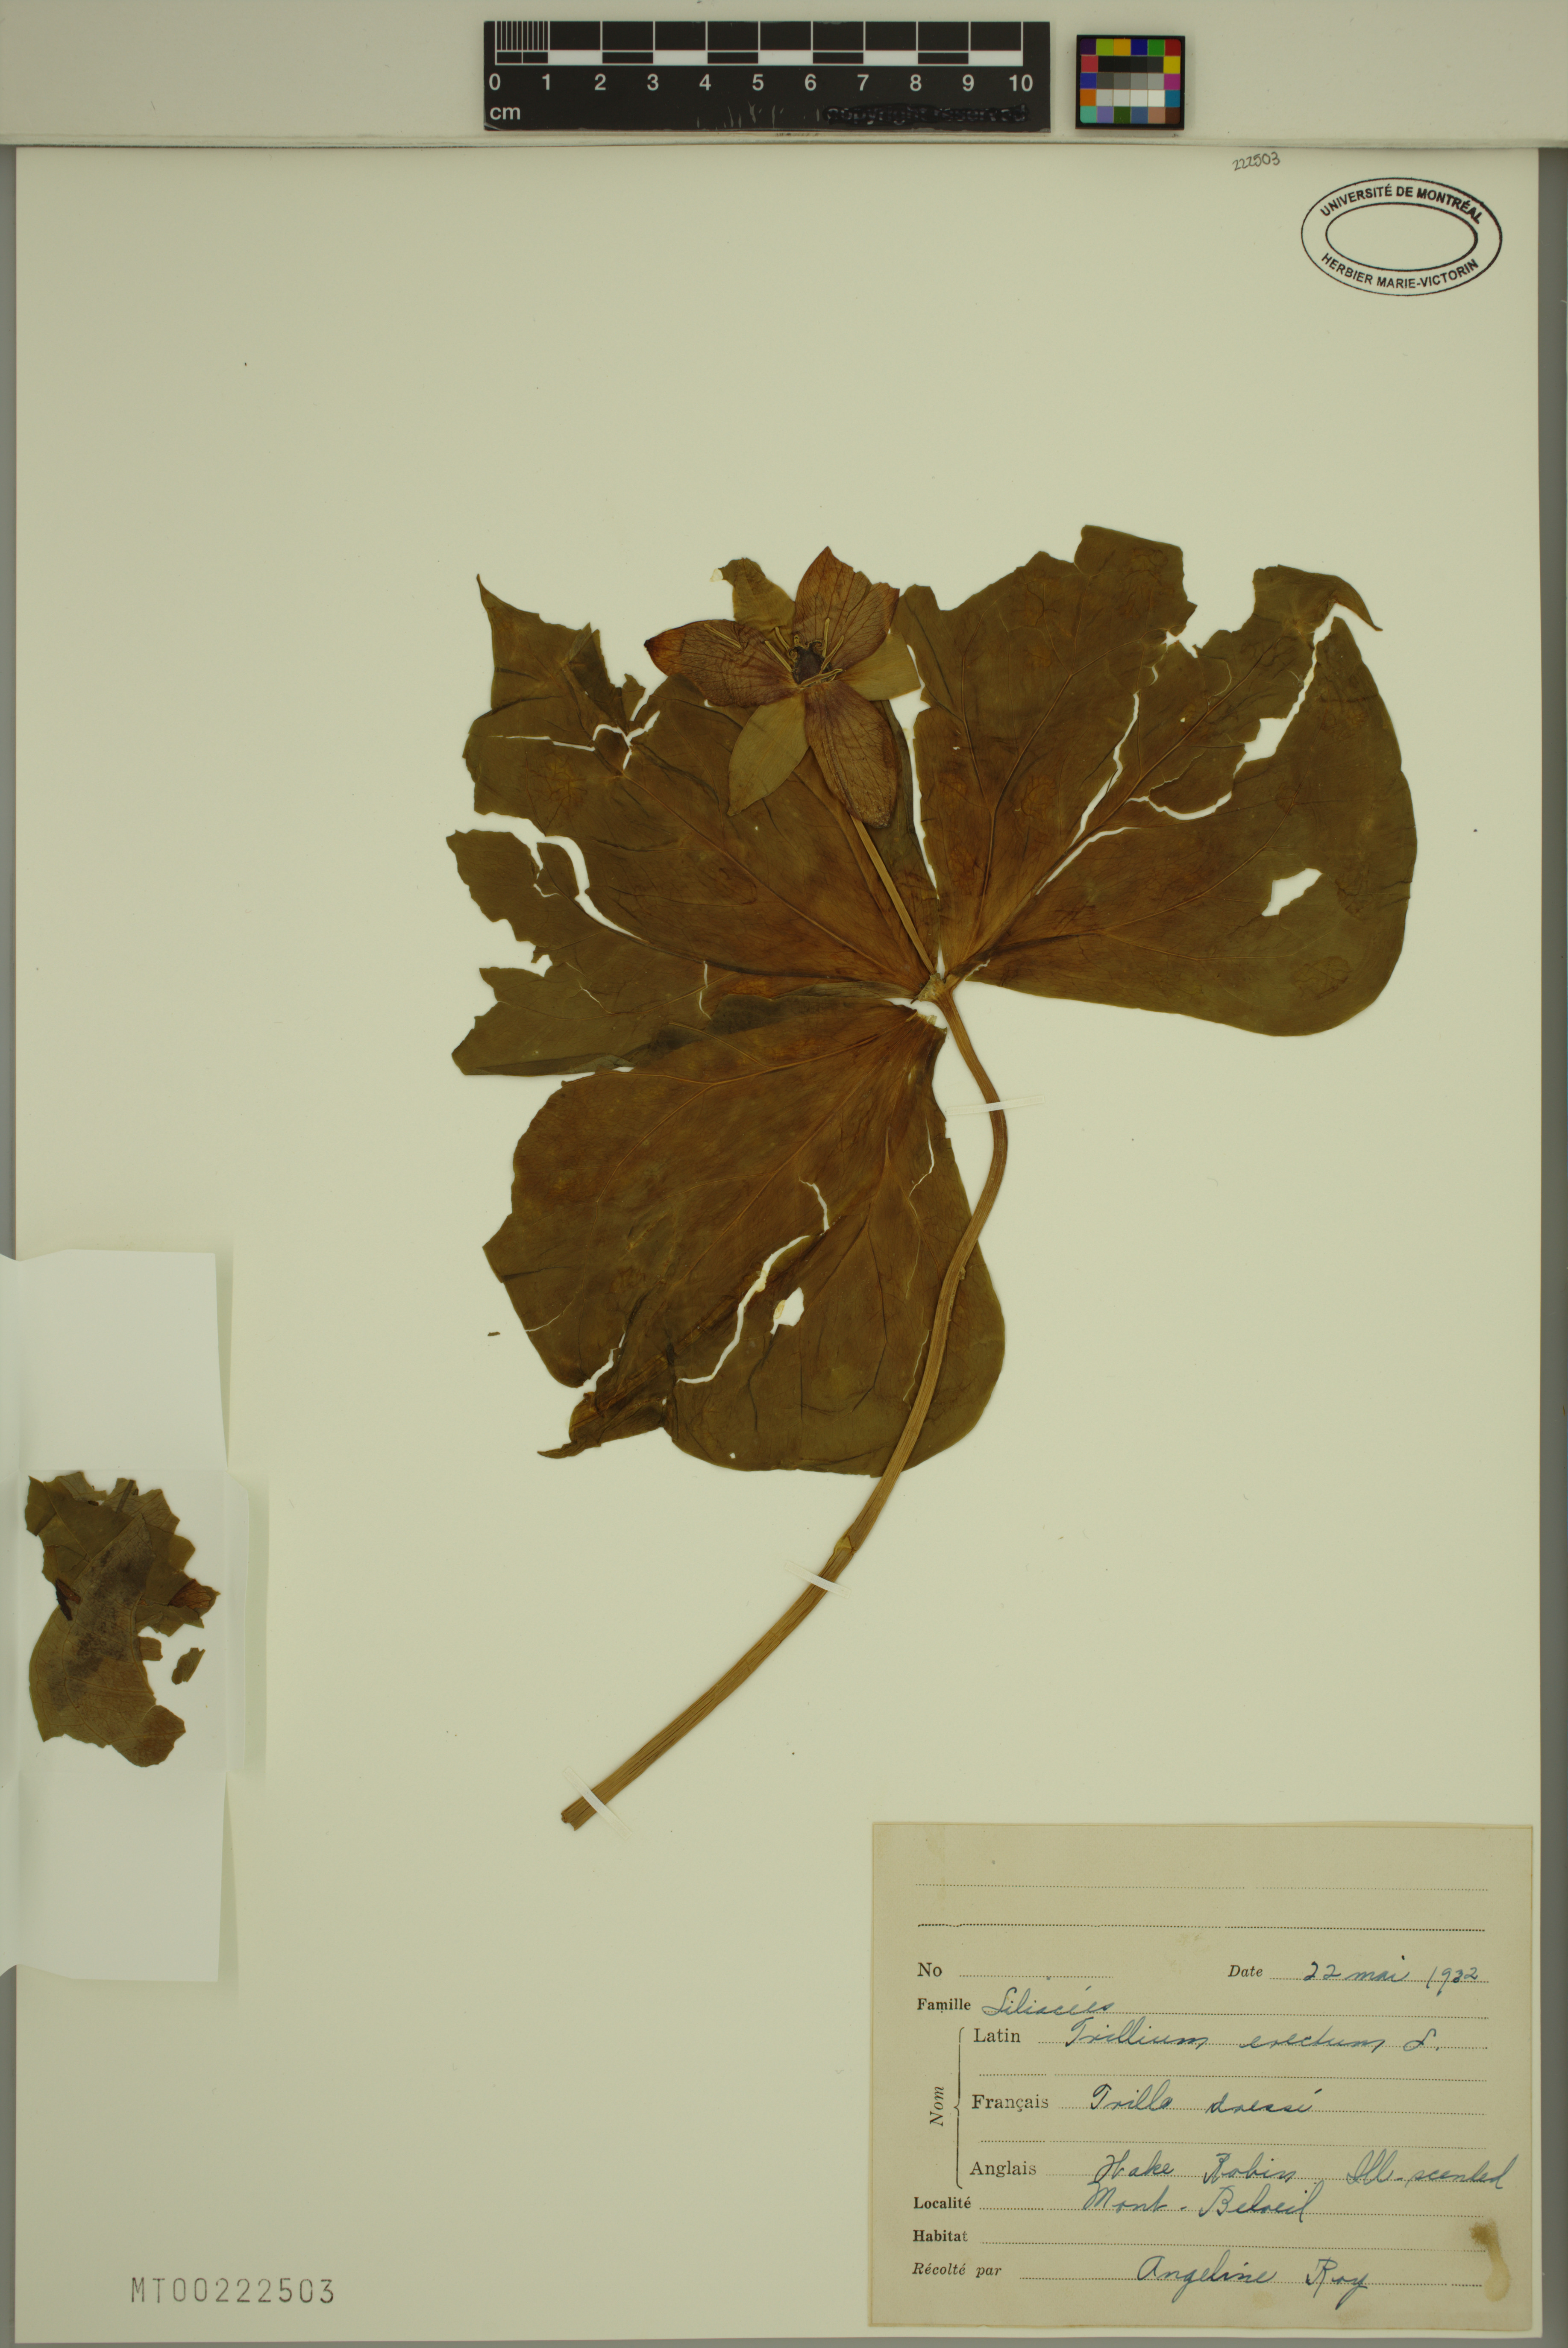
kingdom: Plantae
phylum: Tracheophyta
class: Liliopsida
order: Liliales
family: Melanthiaceae
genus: Trillium
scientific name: Trillium erectum
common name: Purple trillium
